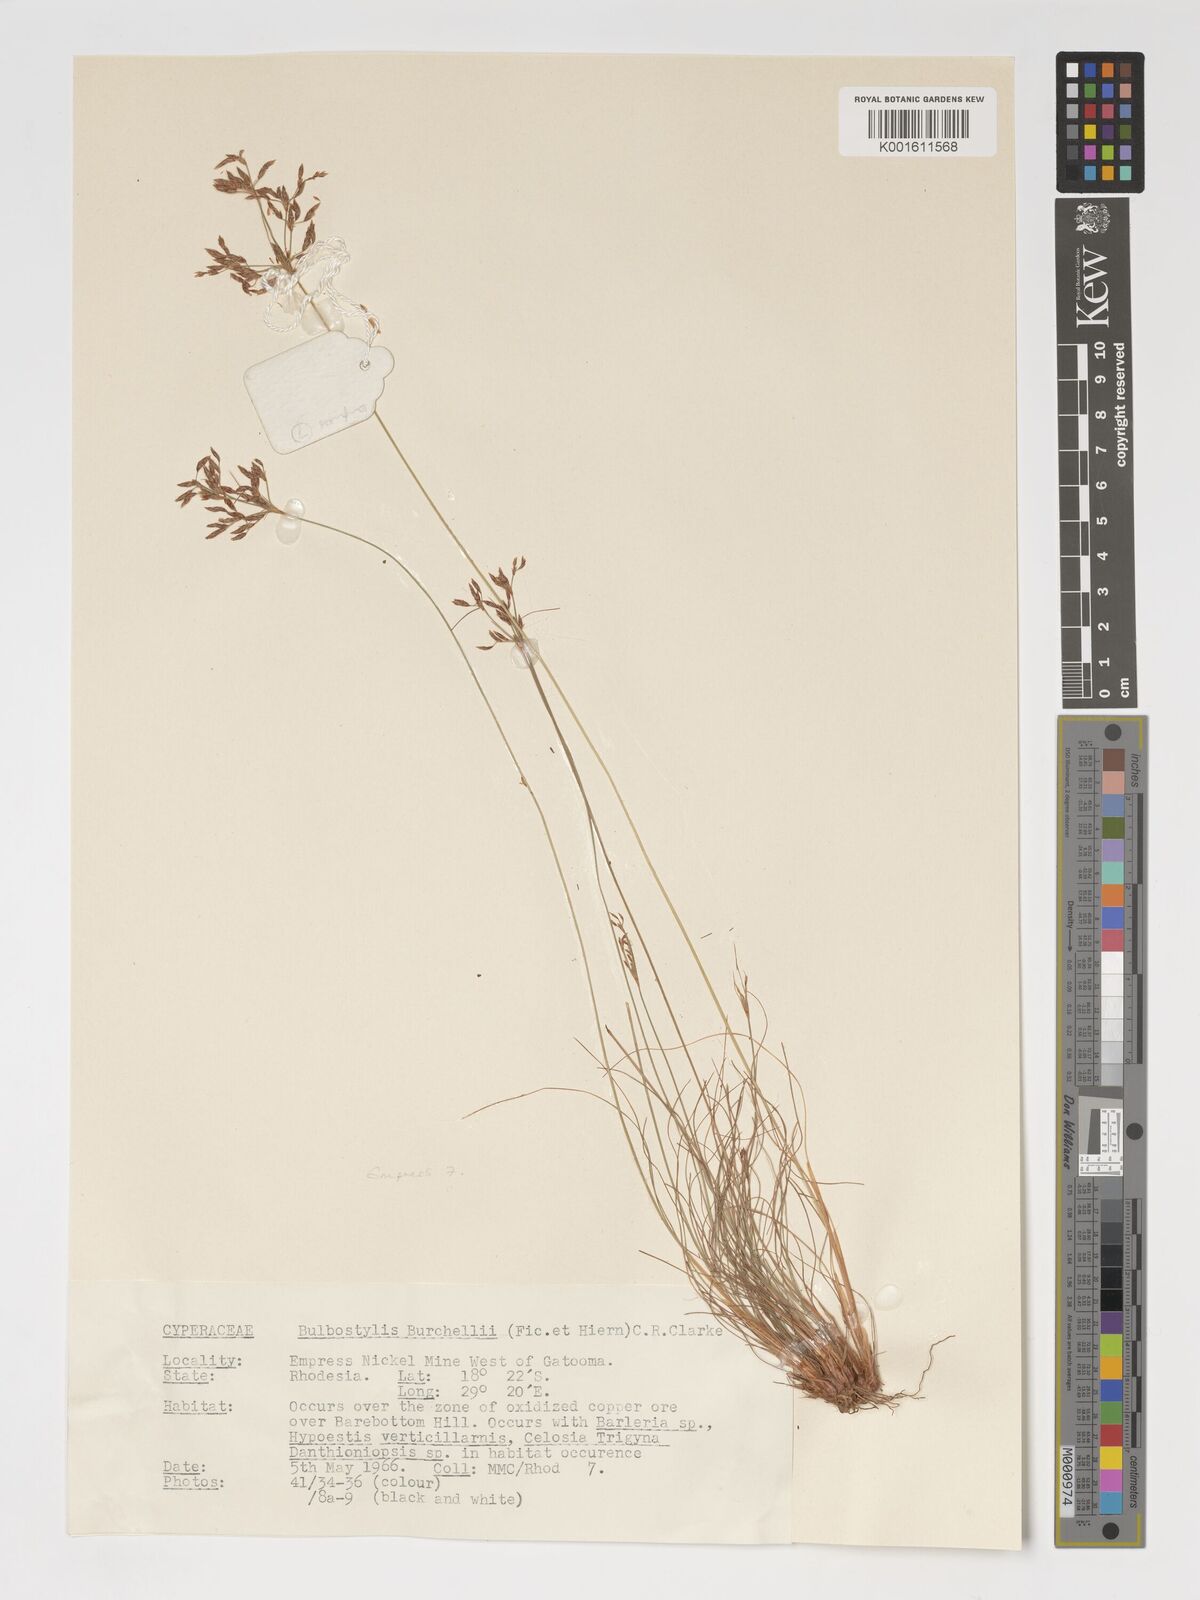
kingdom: Plantae
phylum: Tracheophyta
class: Liliopsida
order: Poales
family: Cyperaceae
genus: Bulbostylis
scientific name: Bulbostylis burchellii
